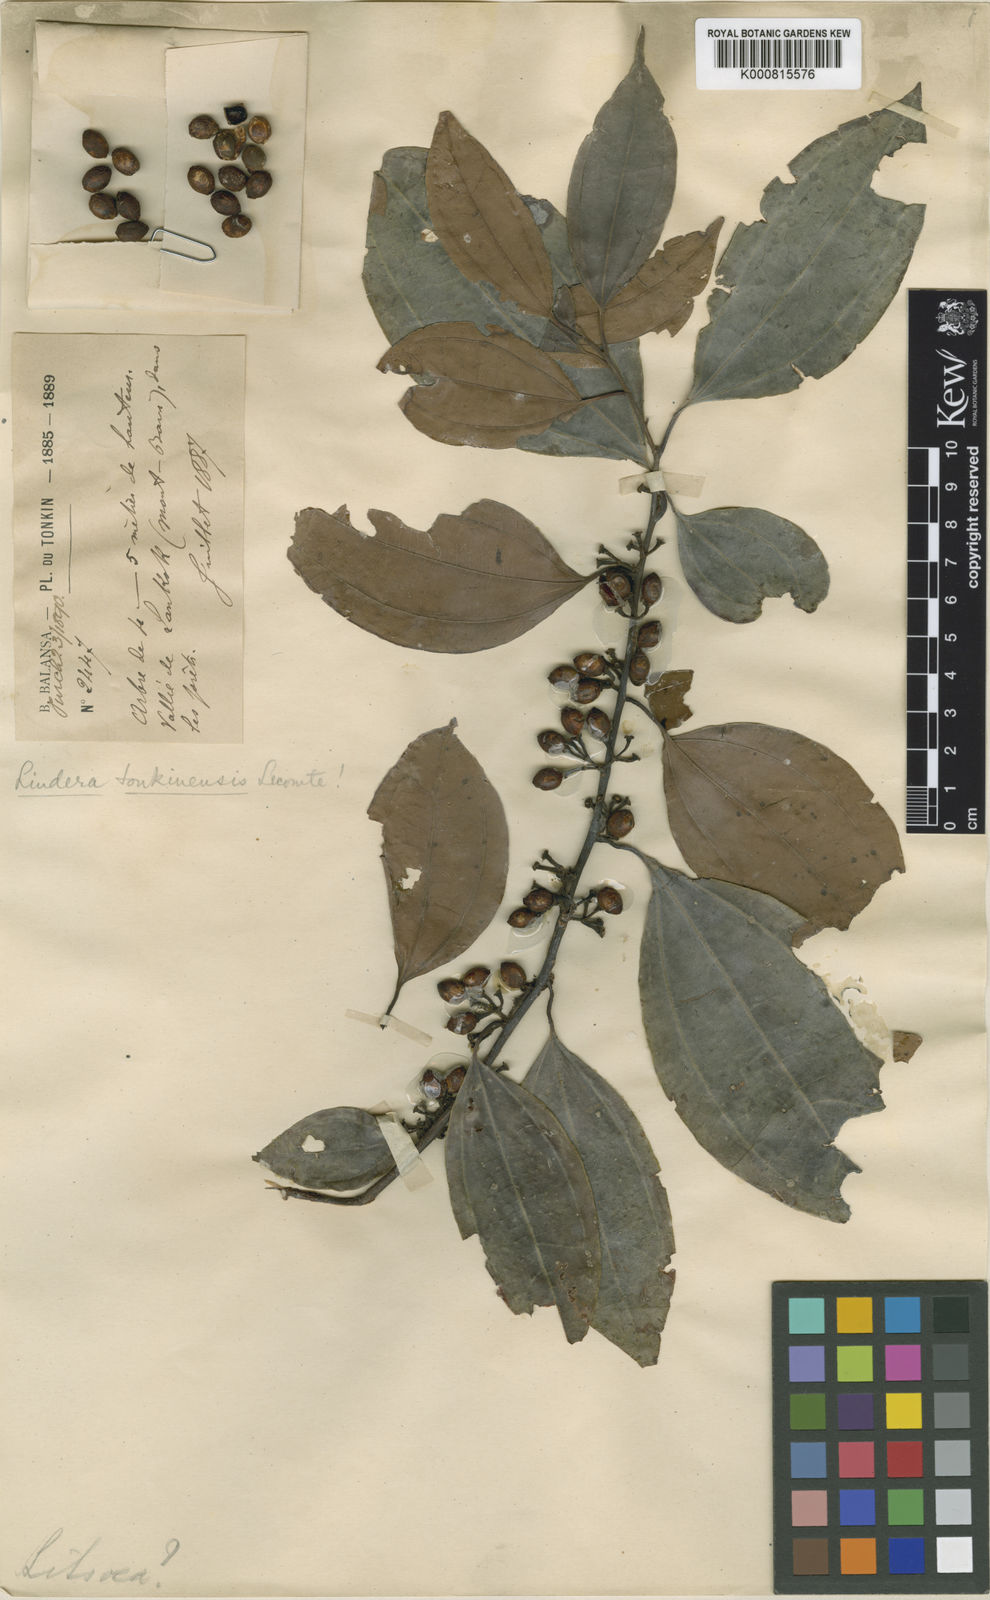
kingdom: Plantae
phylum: Tracheophyta
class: Magnoliopsida
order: Laurales
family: Lauraceae
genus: Lindera
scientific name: Lindera tonkinensis
